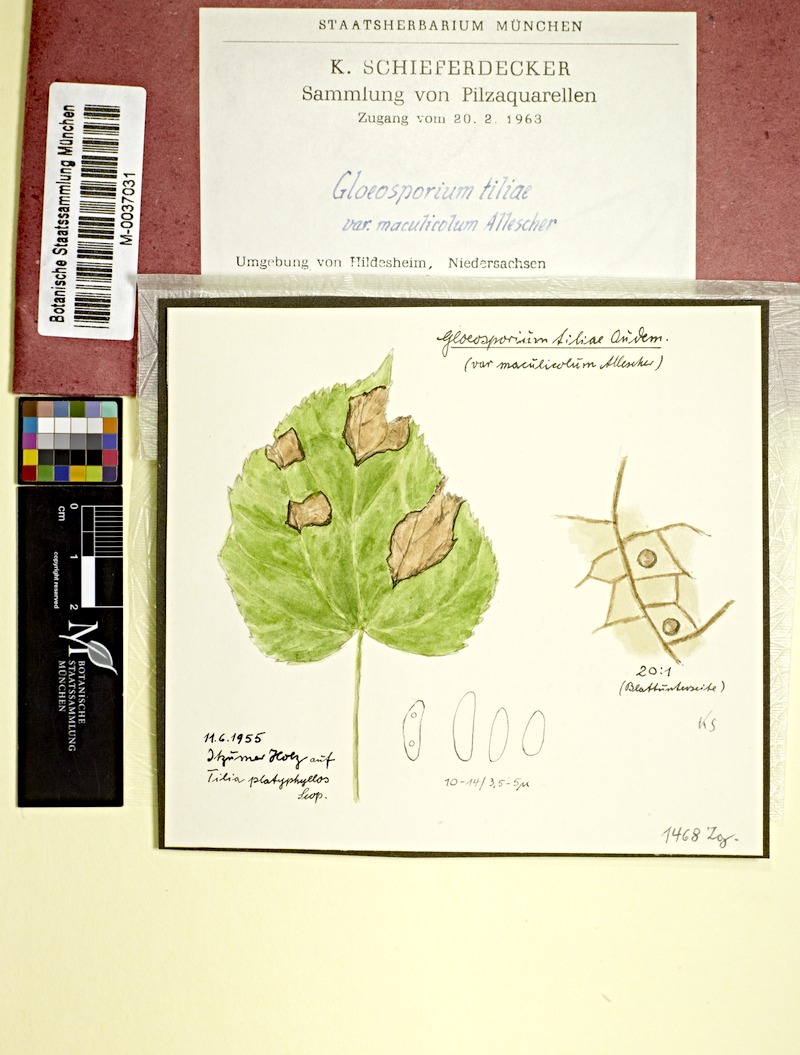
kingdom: Fungi
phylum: Ascomycota
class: Sordariomycetes
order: Diaporthales
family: Gnomoniaceae
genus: Apiognomonia
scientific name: Apiognomonia errabunda
